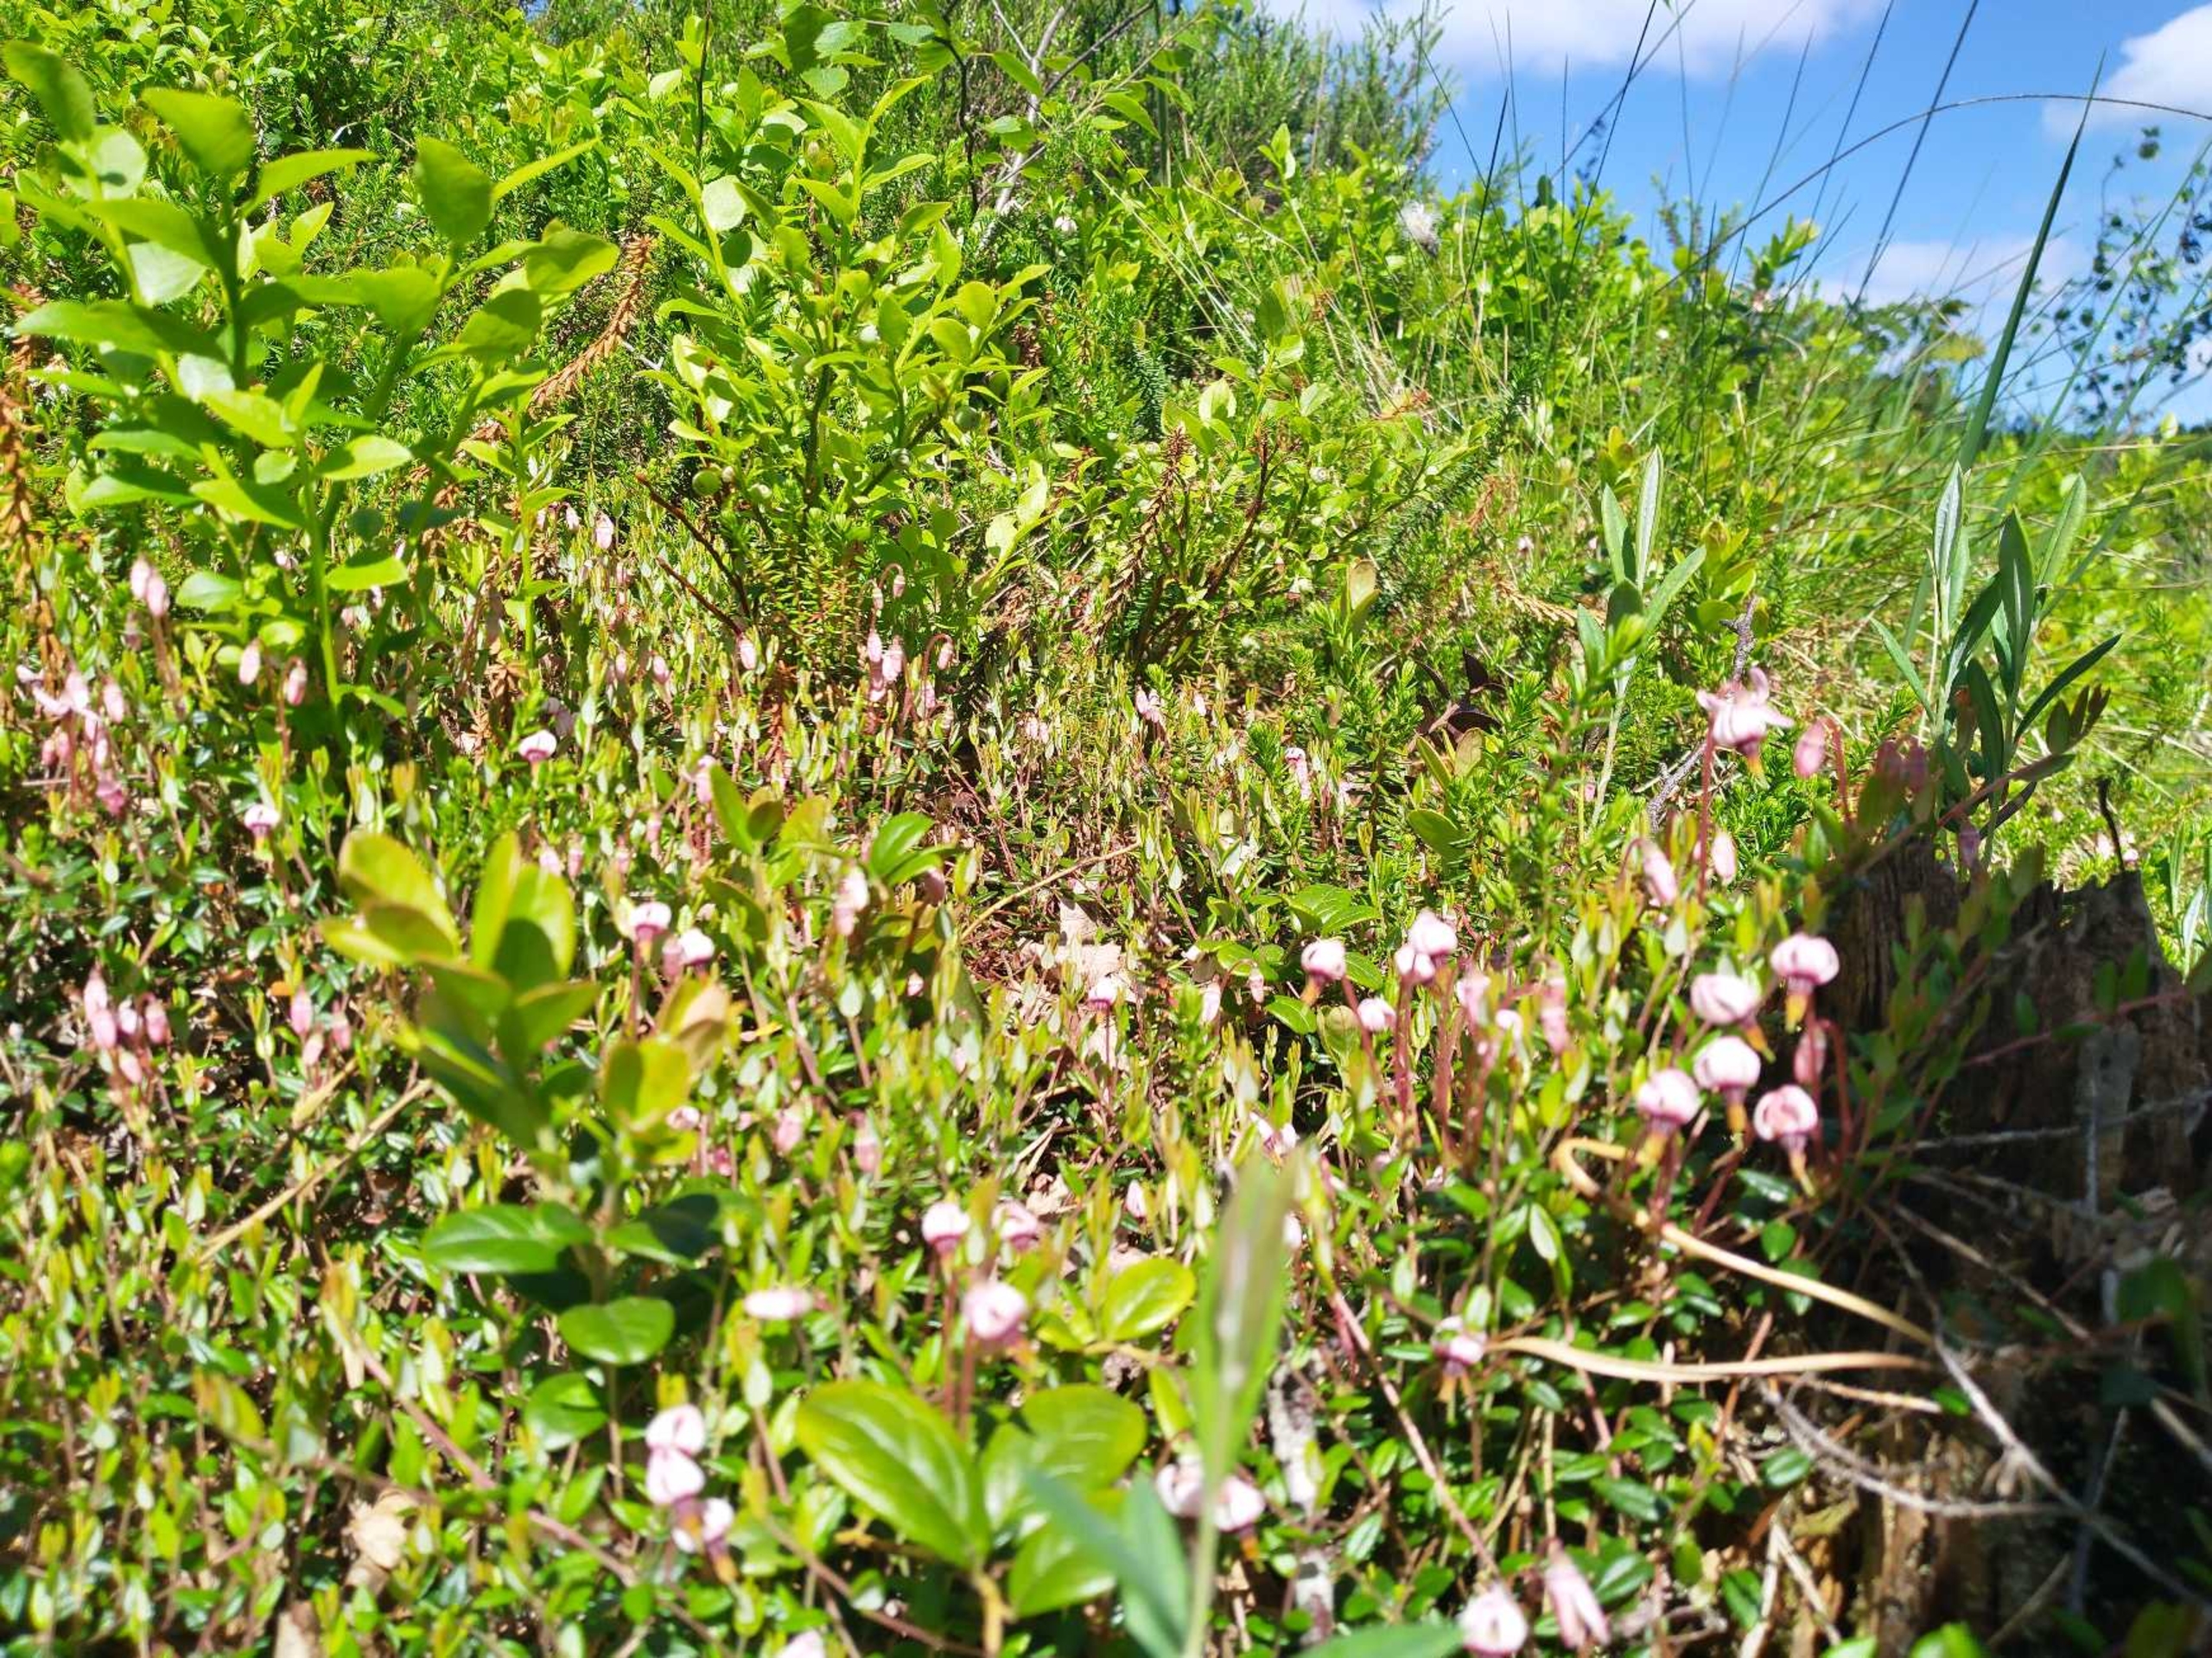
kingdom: Plantae
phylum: Tracheophyta
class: Magnoliopsida
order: Ericales
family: Ericaceae
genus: Vaccinium
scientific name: Vaccinium oxycoccos
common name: Tranebær
